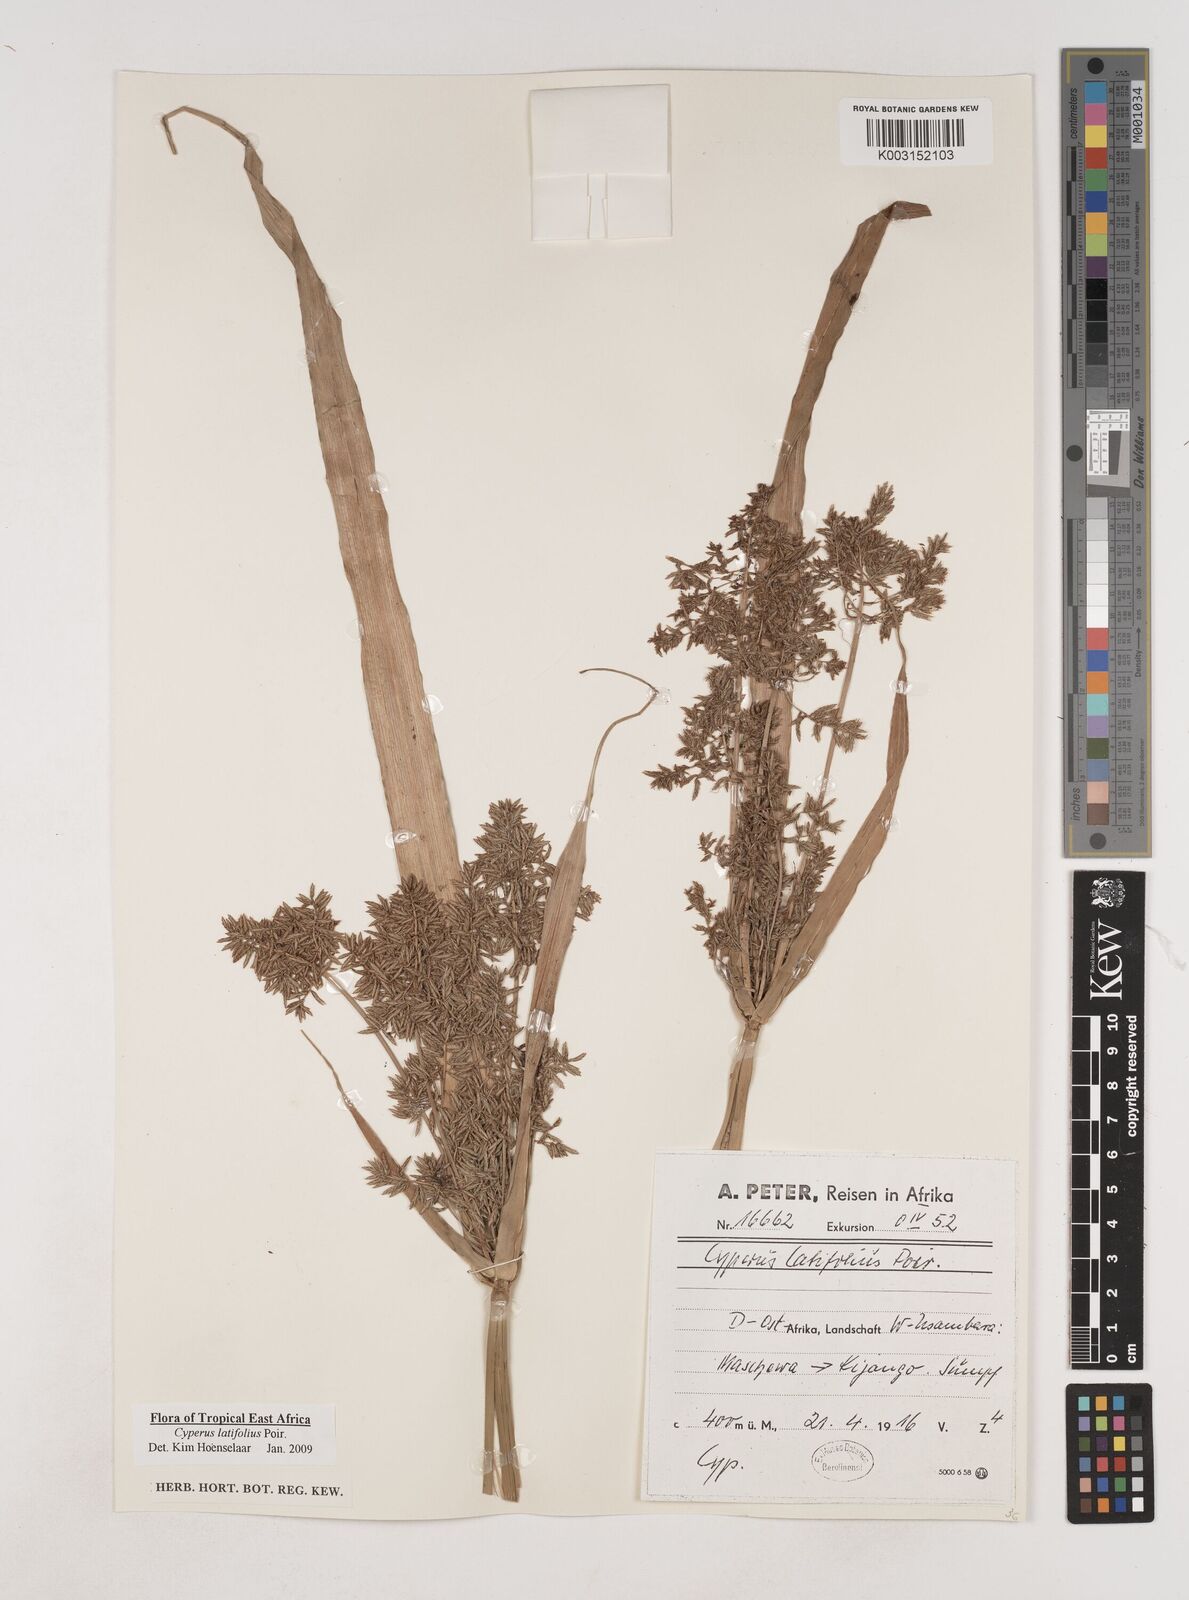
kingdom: Plantae
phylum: Tracheophyta
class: Liliopsida
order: Poales
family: Cyperaceae
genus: Cyperus
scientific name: Cyperus latifolius
